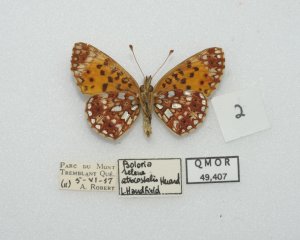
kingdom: Animalia
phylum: Arthropoda
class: Insecta
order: Lepidoptera
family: Nymphalidae
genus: Boloria
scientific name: Boloria selene
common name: Silver-bordered Fritillary
